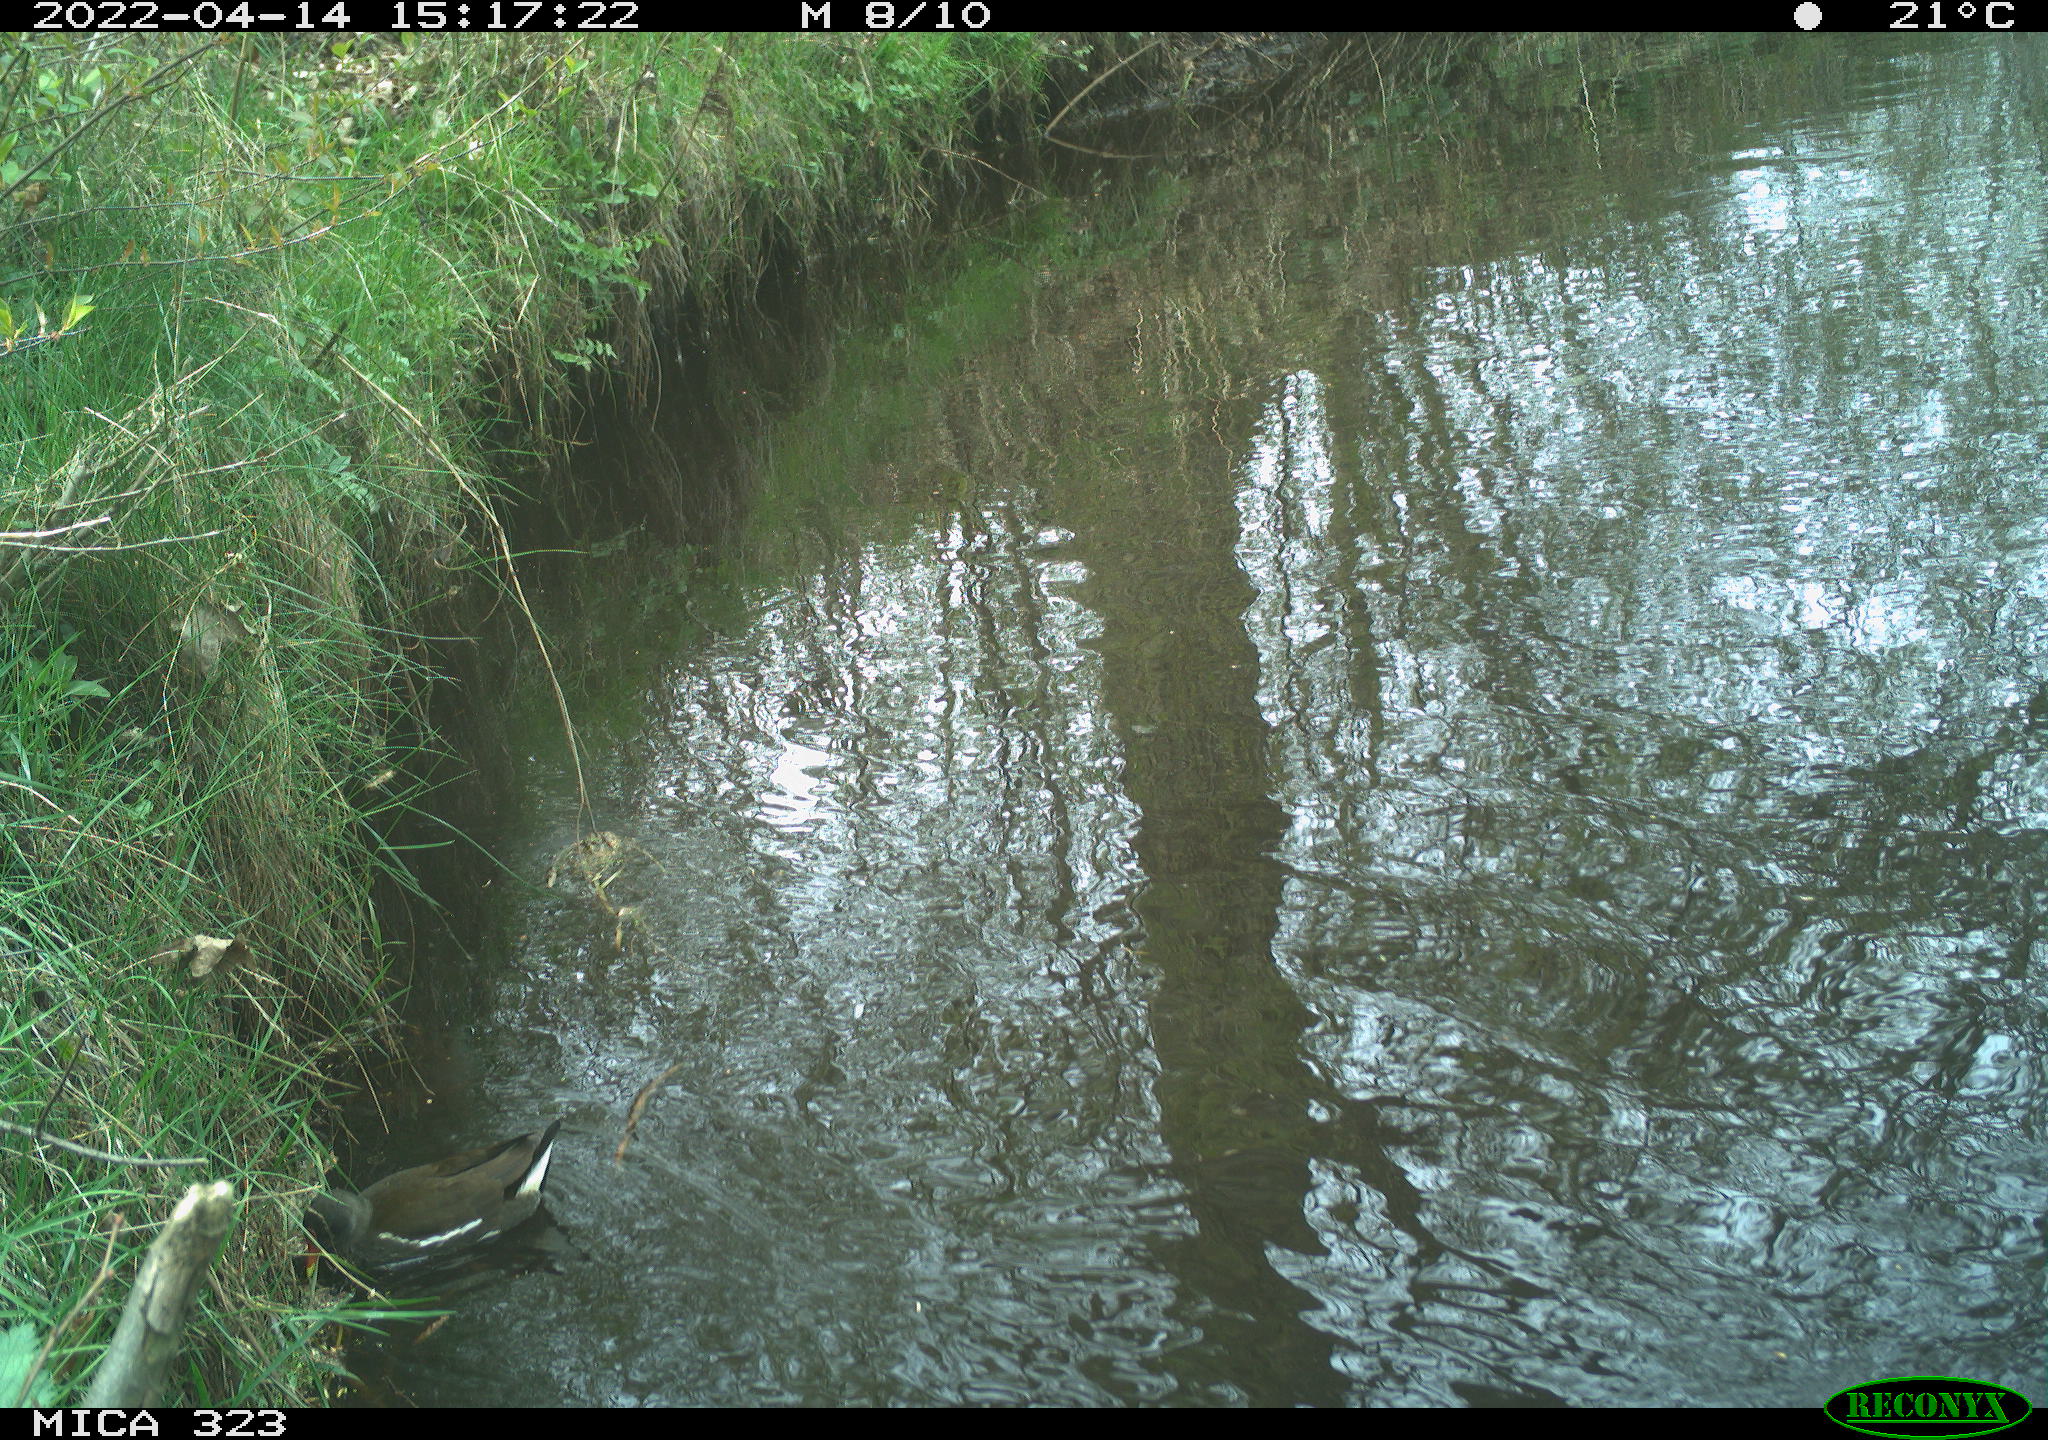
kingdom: Animalia
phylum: Chordata
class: Aves
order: Gruiformes
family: Rallidae
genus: Gallinula
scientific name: Gallinula chloropus
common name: Common moorhen
